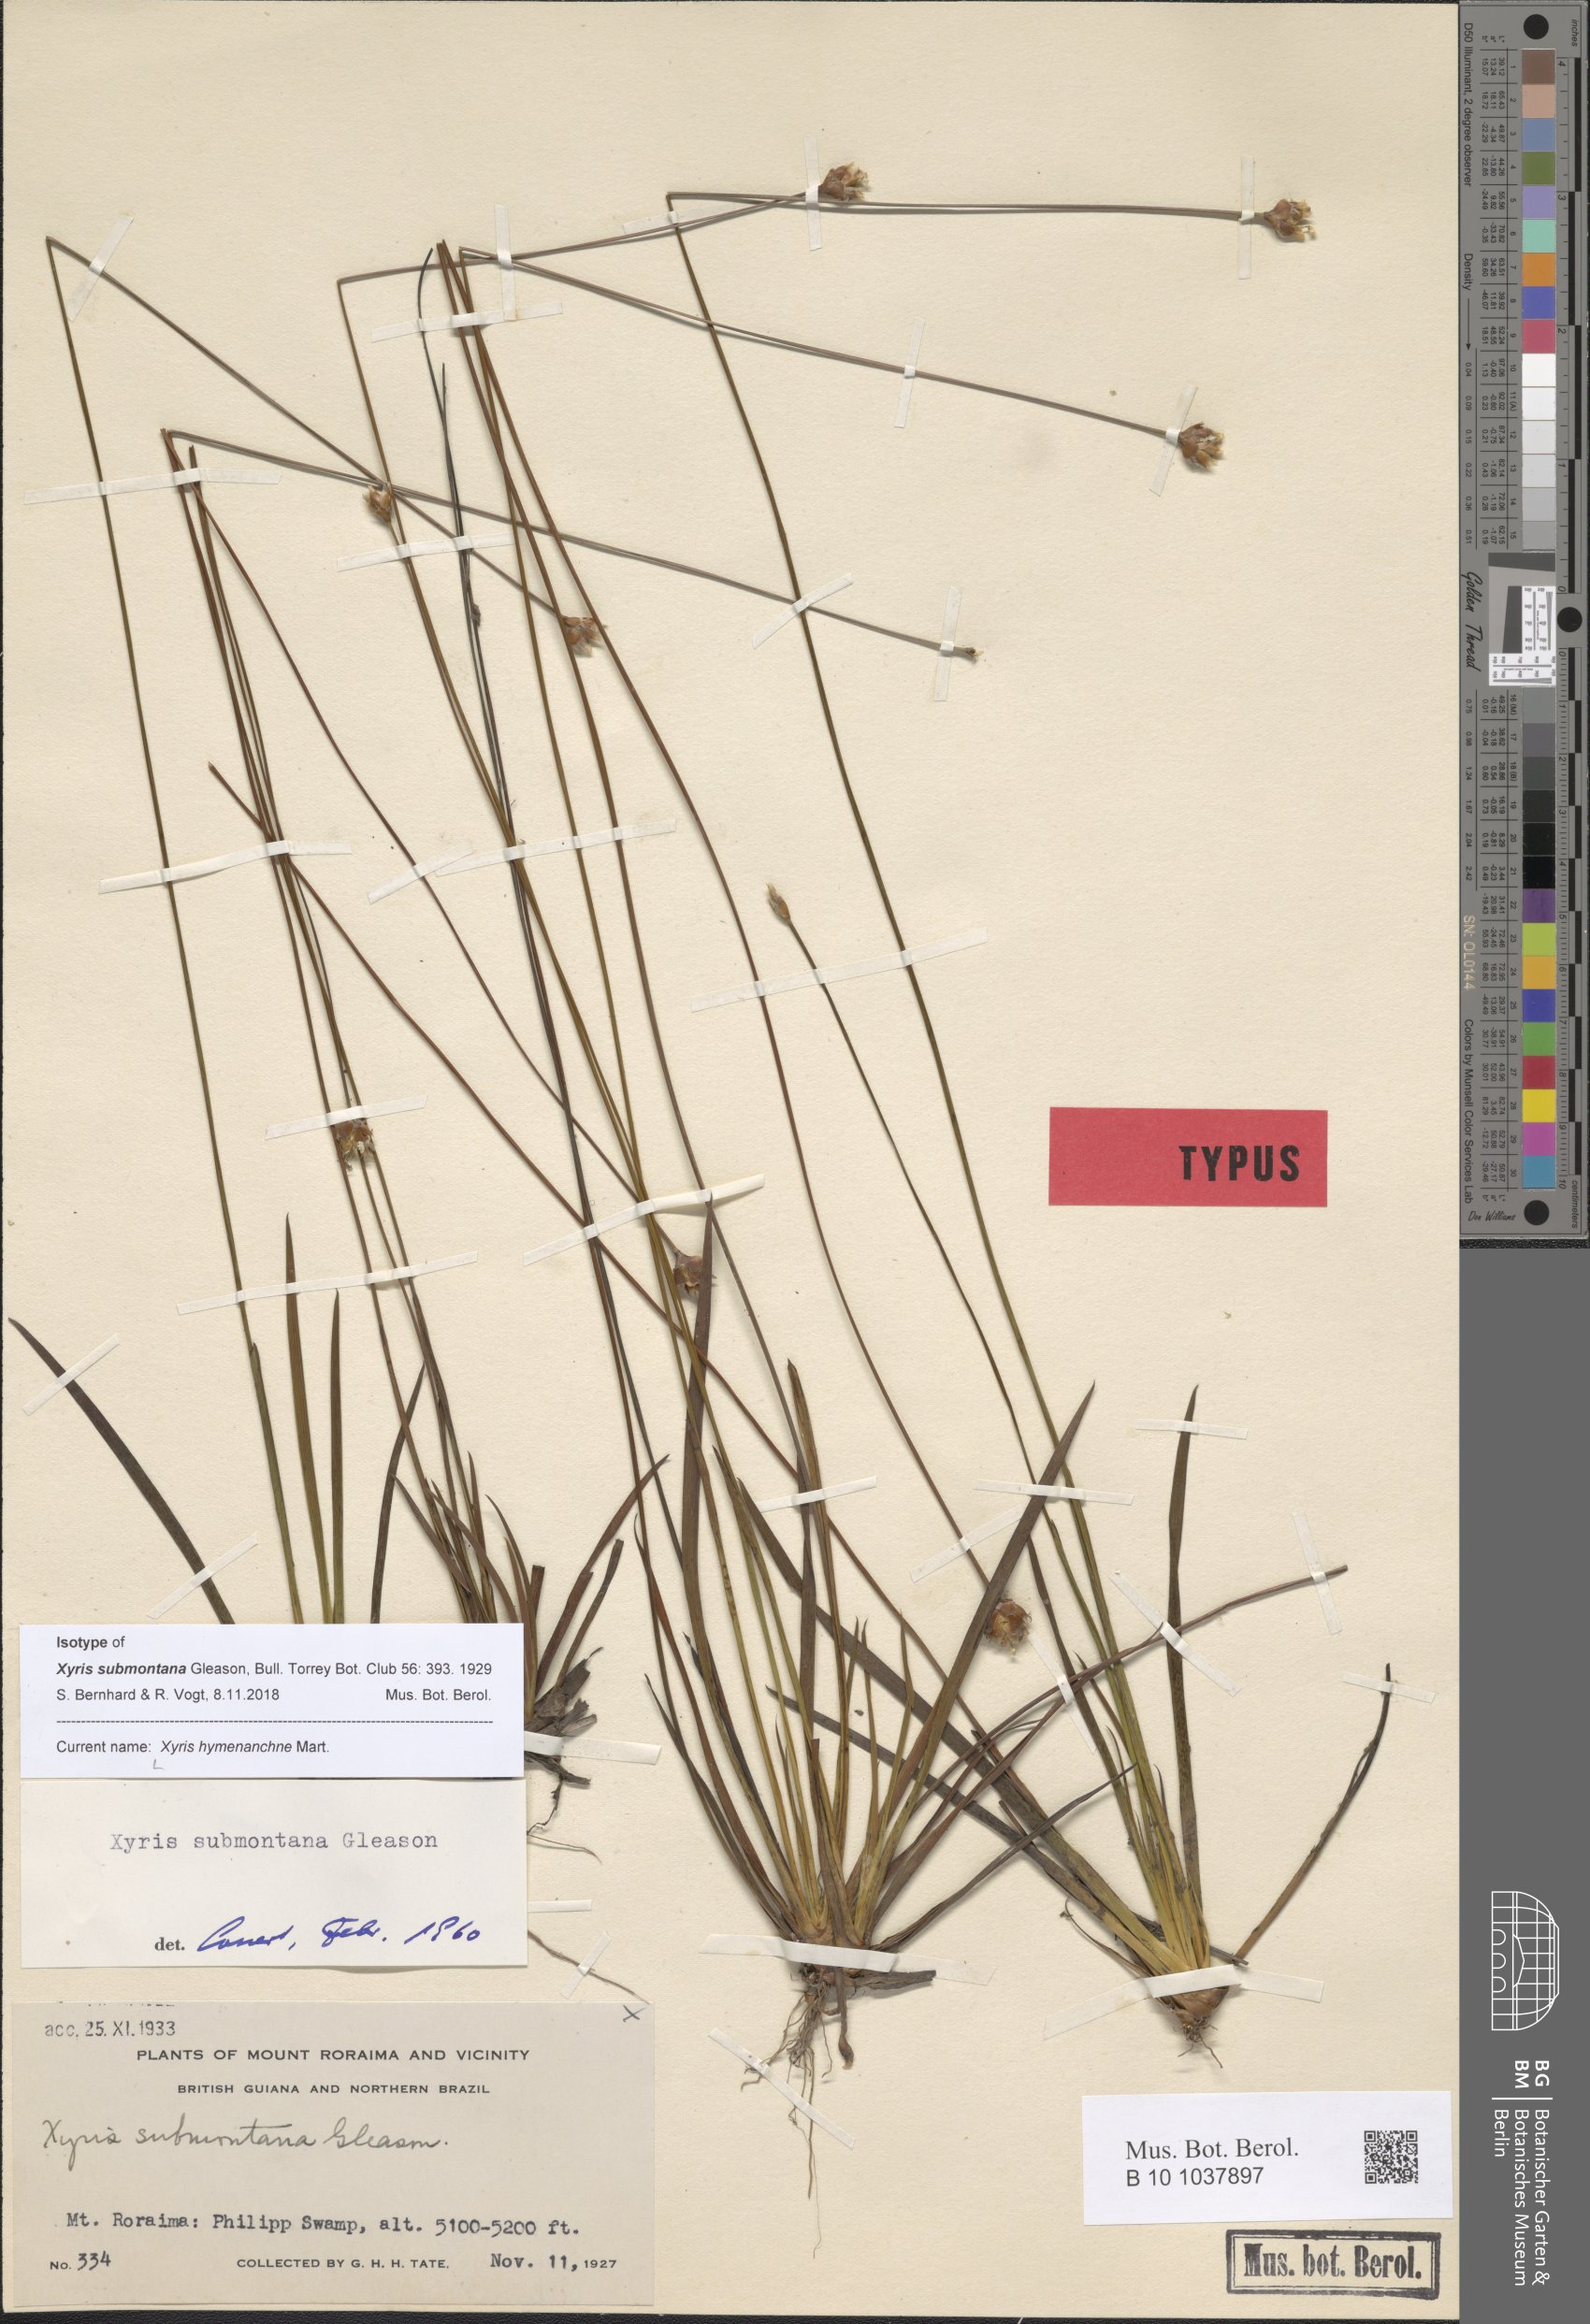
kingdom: Plantae
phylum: Tracheophyta
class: Liliopsida
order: Poales
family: Xyridaceae
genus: Xyris
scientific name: Xyris hymenachne
